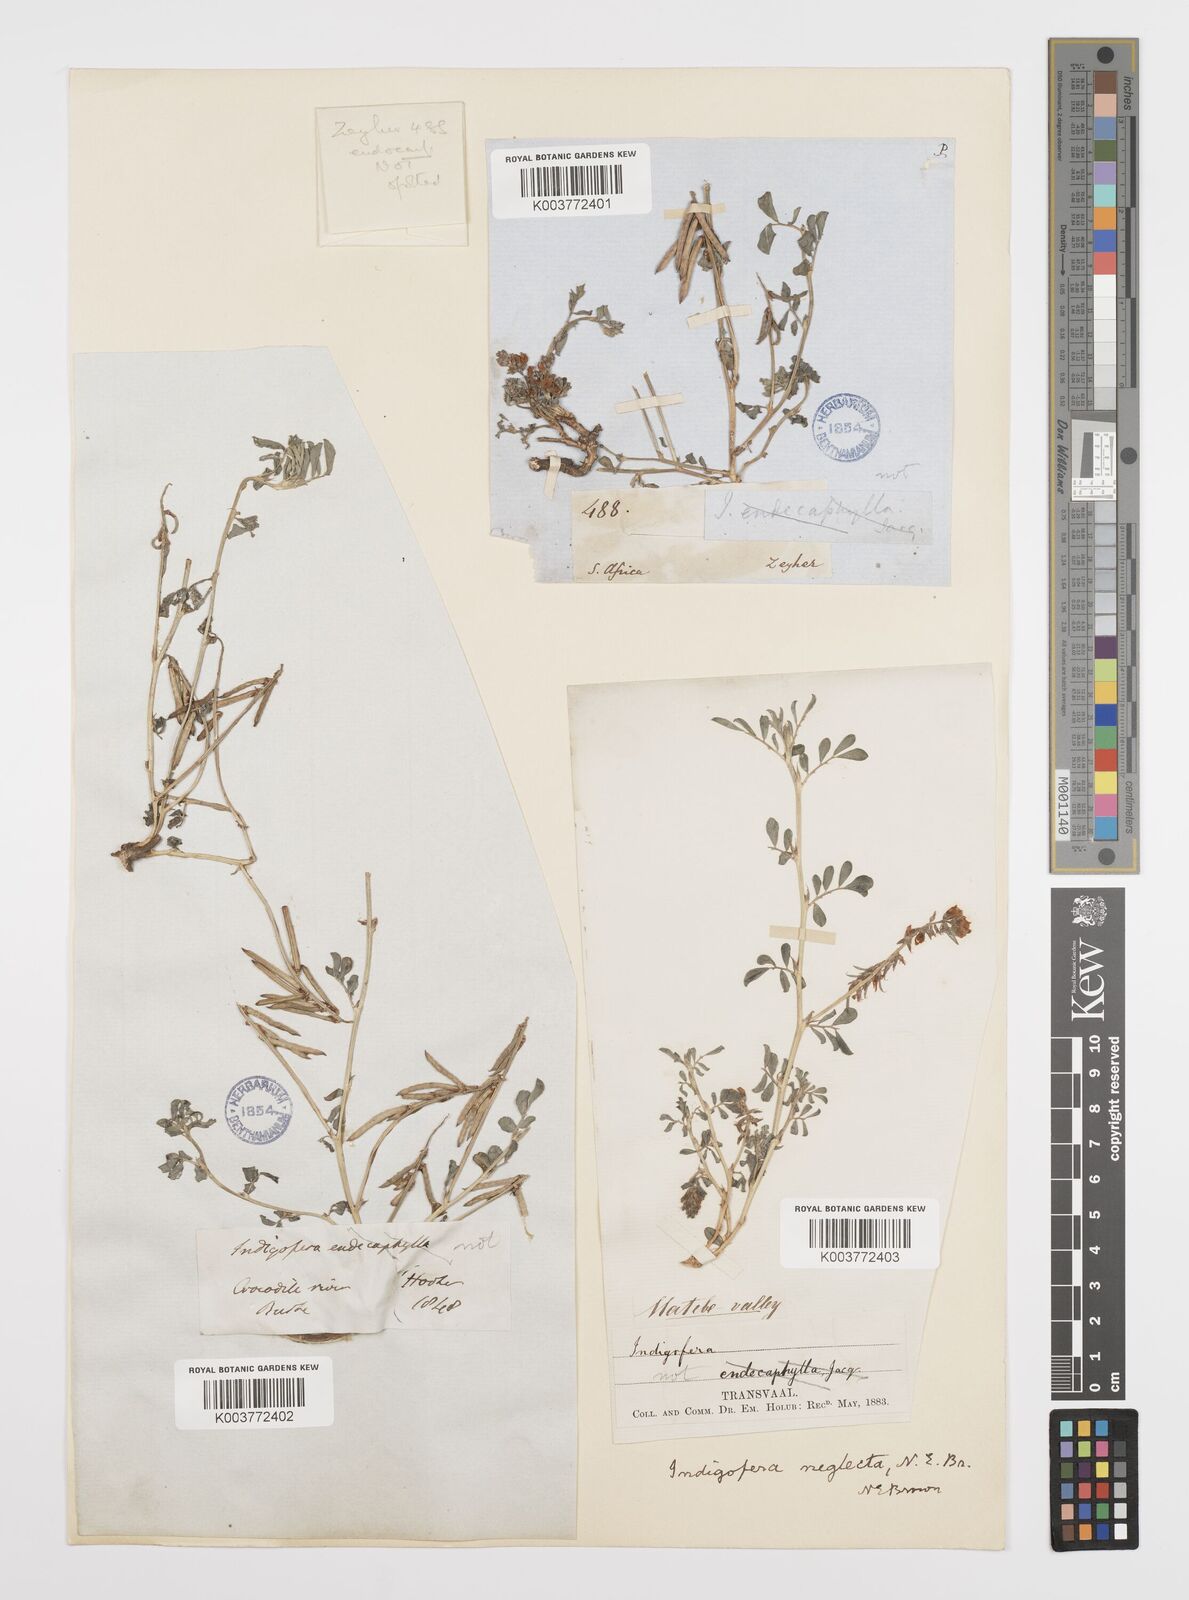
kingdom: Plantae
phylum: Tracheophyta
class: Magnoliopsida
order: Fabales
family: Fabaceae
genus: Indigofera
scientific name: Indigofera spicata
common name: Creeping indigo
